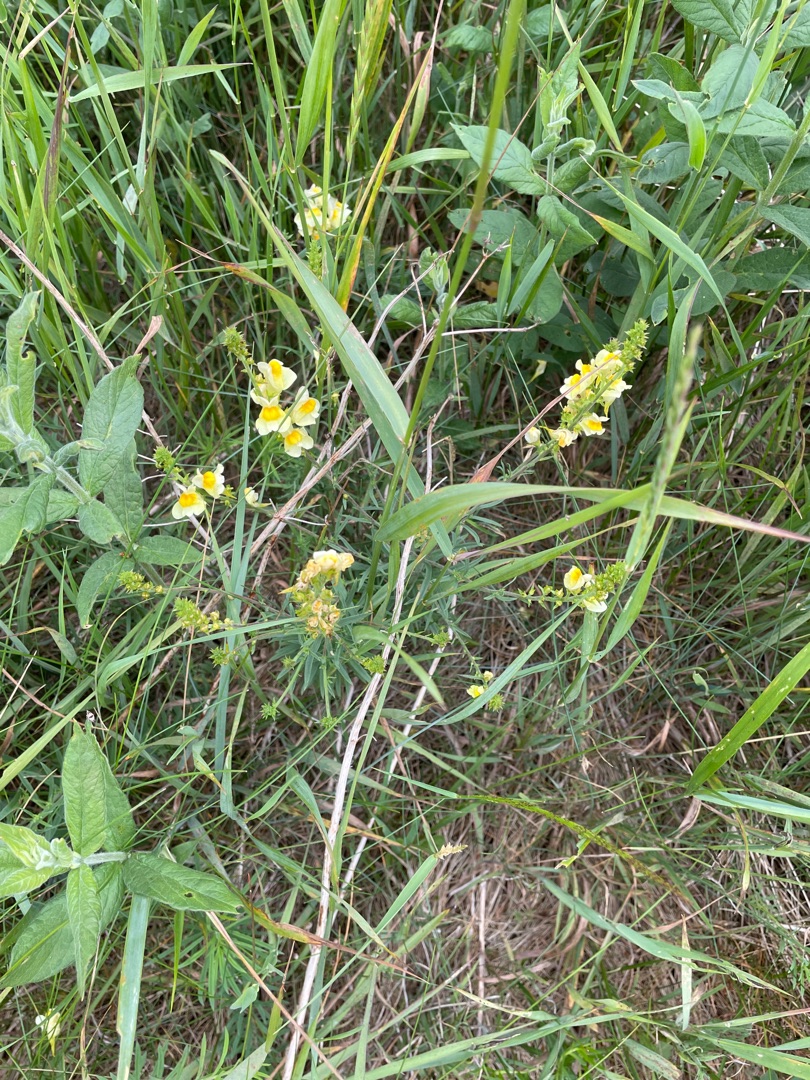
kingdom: Plantae
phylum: Tracheophyta
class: Magnoliopsida
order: Lamiales
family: Plantaginaceae
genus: Linaria
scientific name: Linaria vulgaris
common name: Almindelig torskemund
